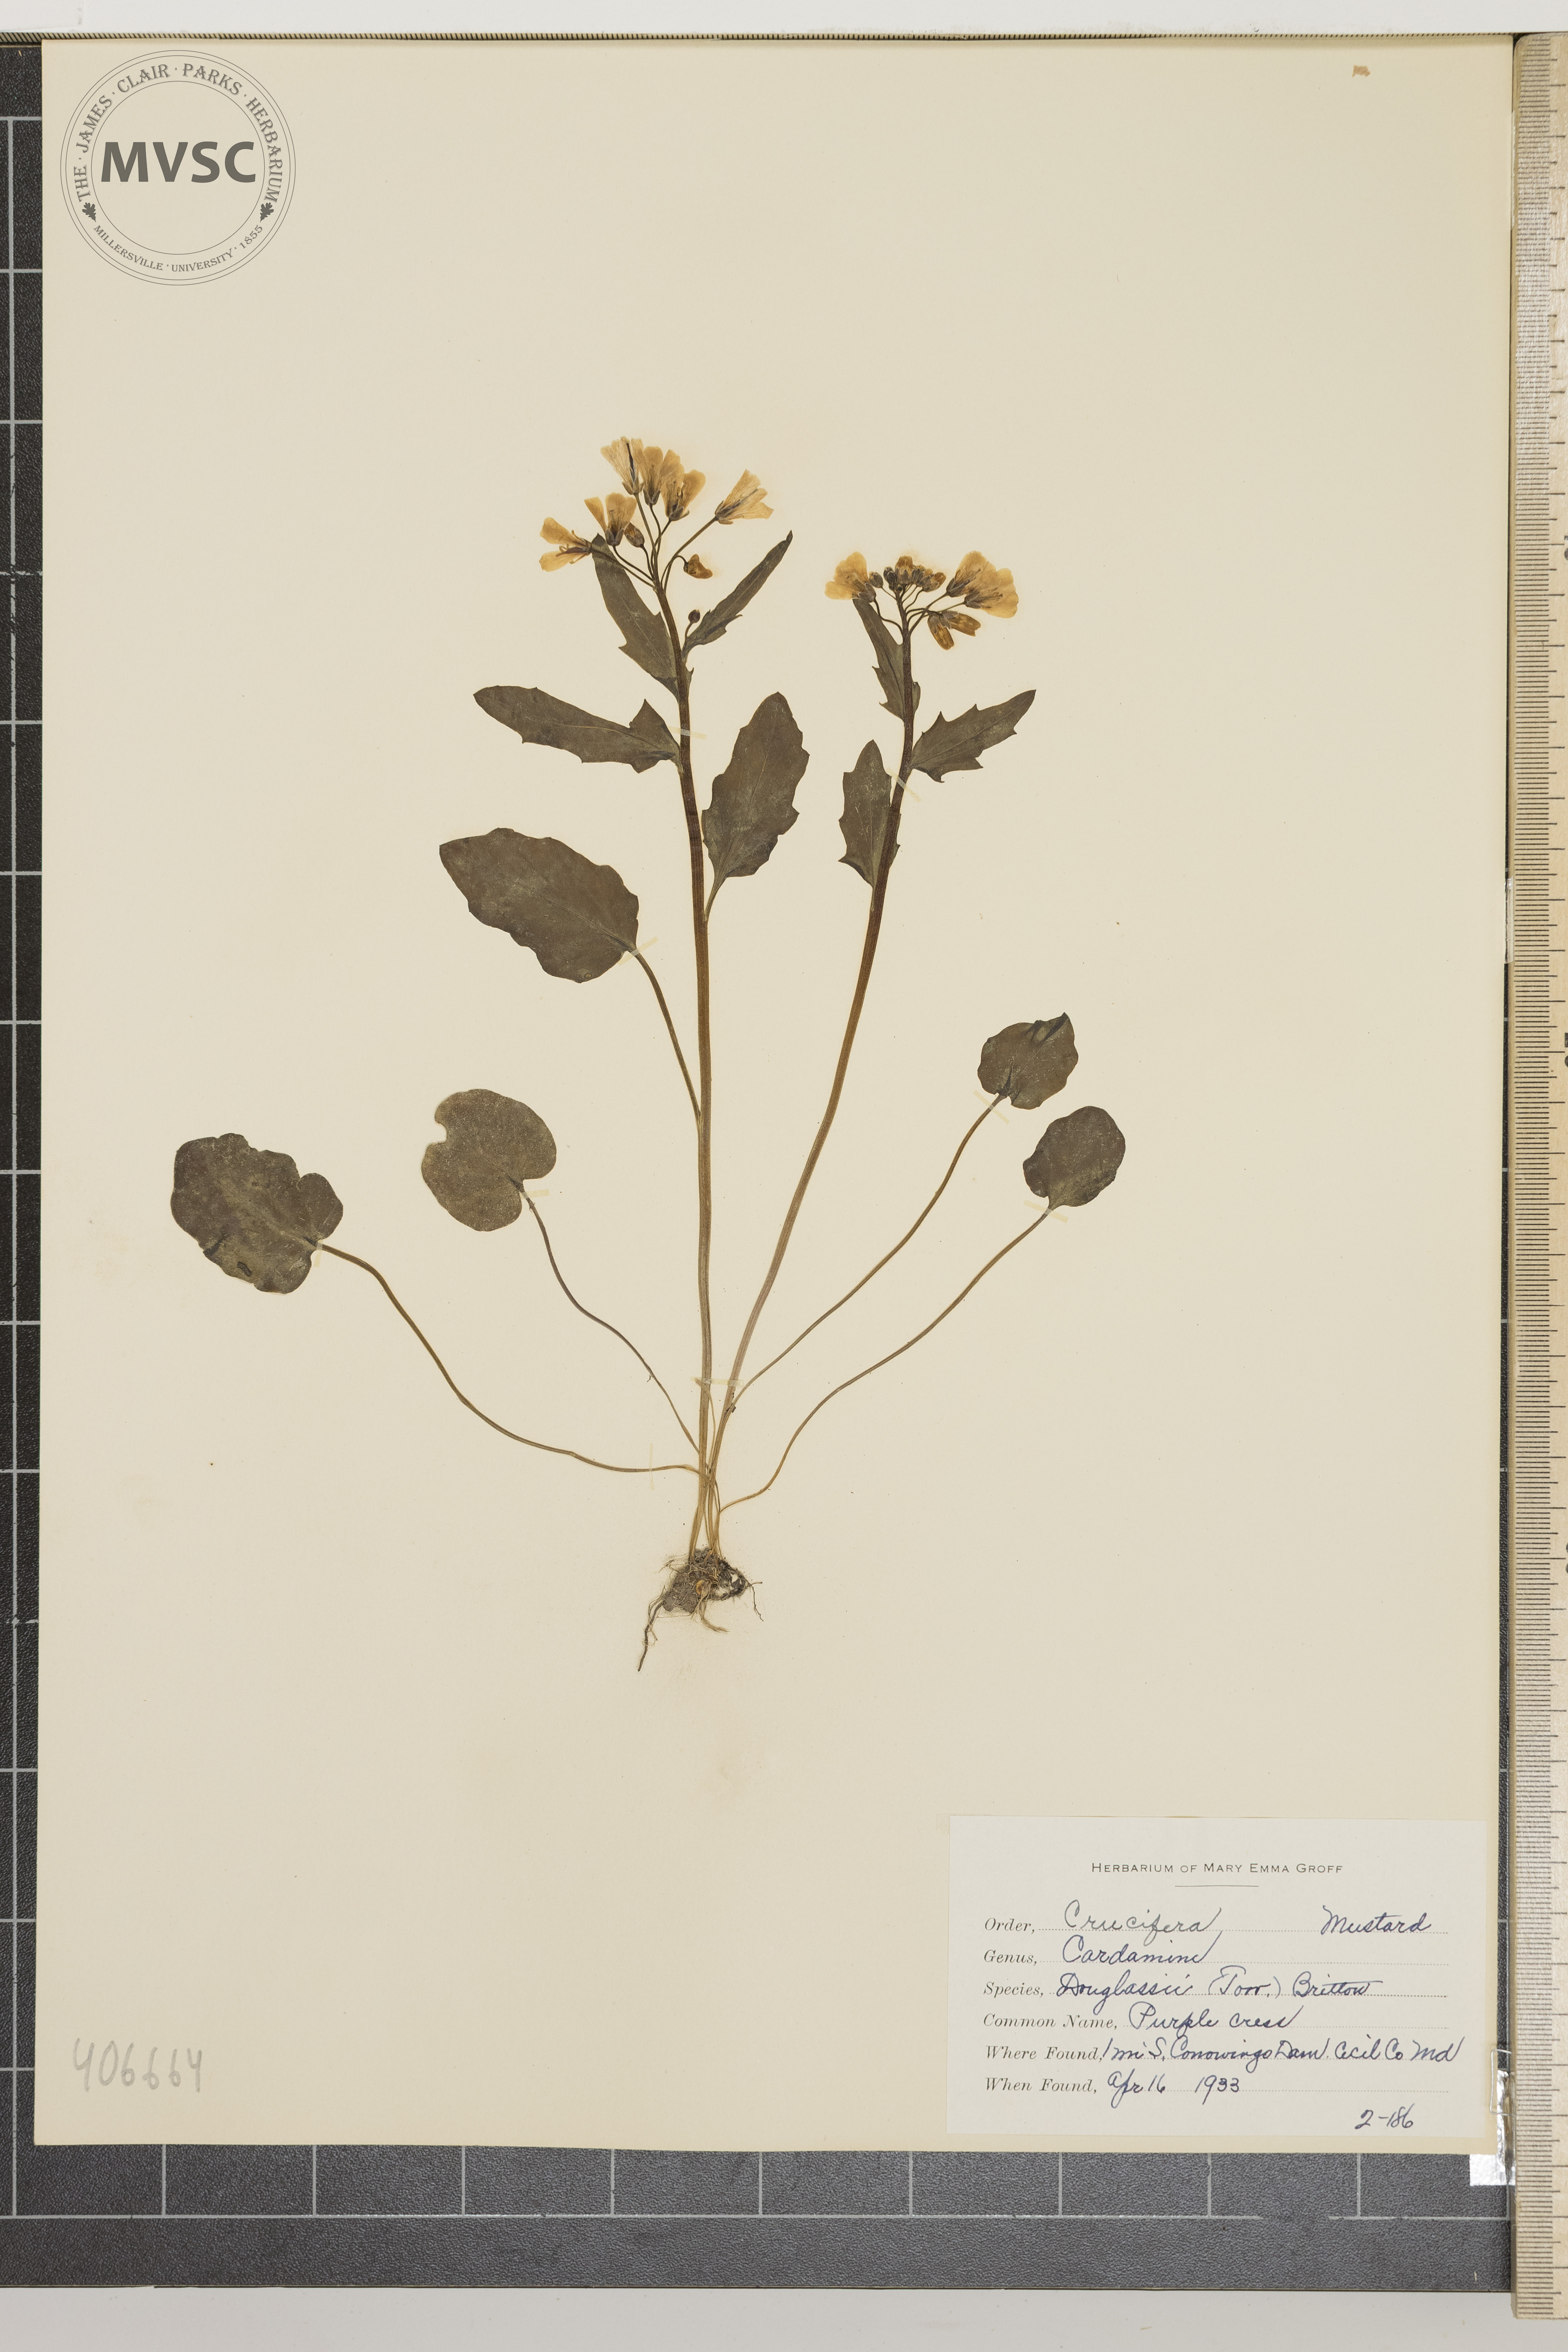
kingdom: Plantae
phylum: Tracheophyta
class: Magnoliopsida
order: Brassicales
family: Brassicaceae
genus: Cardamine
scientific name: Cardamine douglassii
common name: Purple Cress
